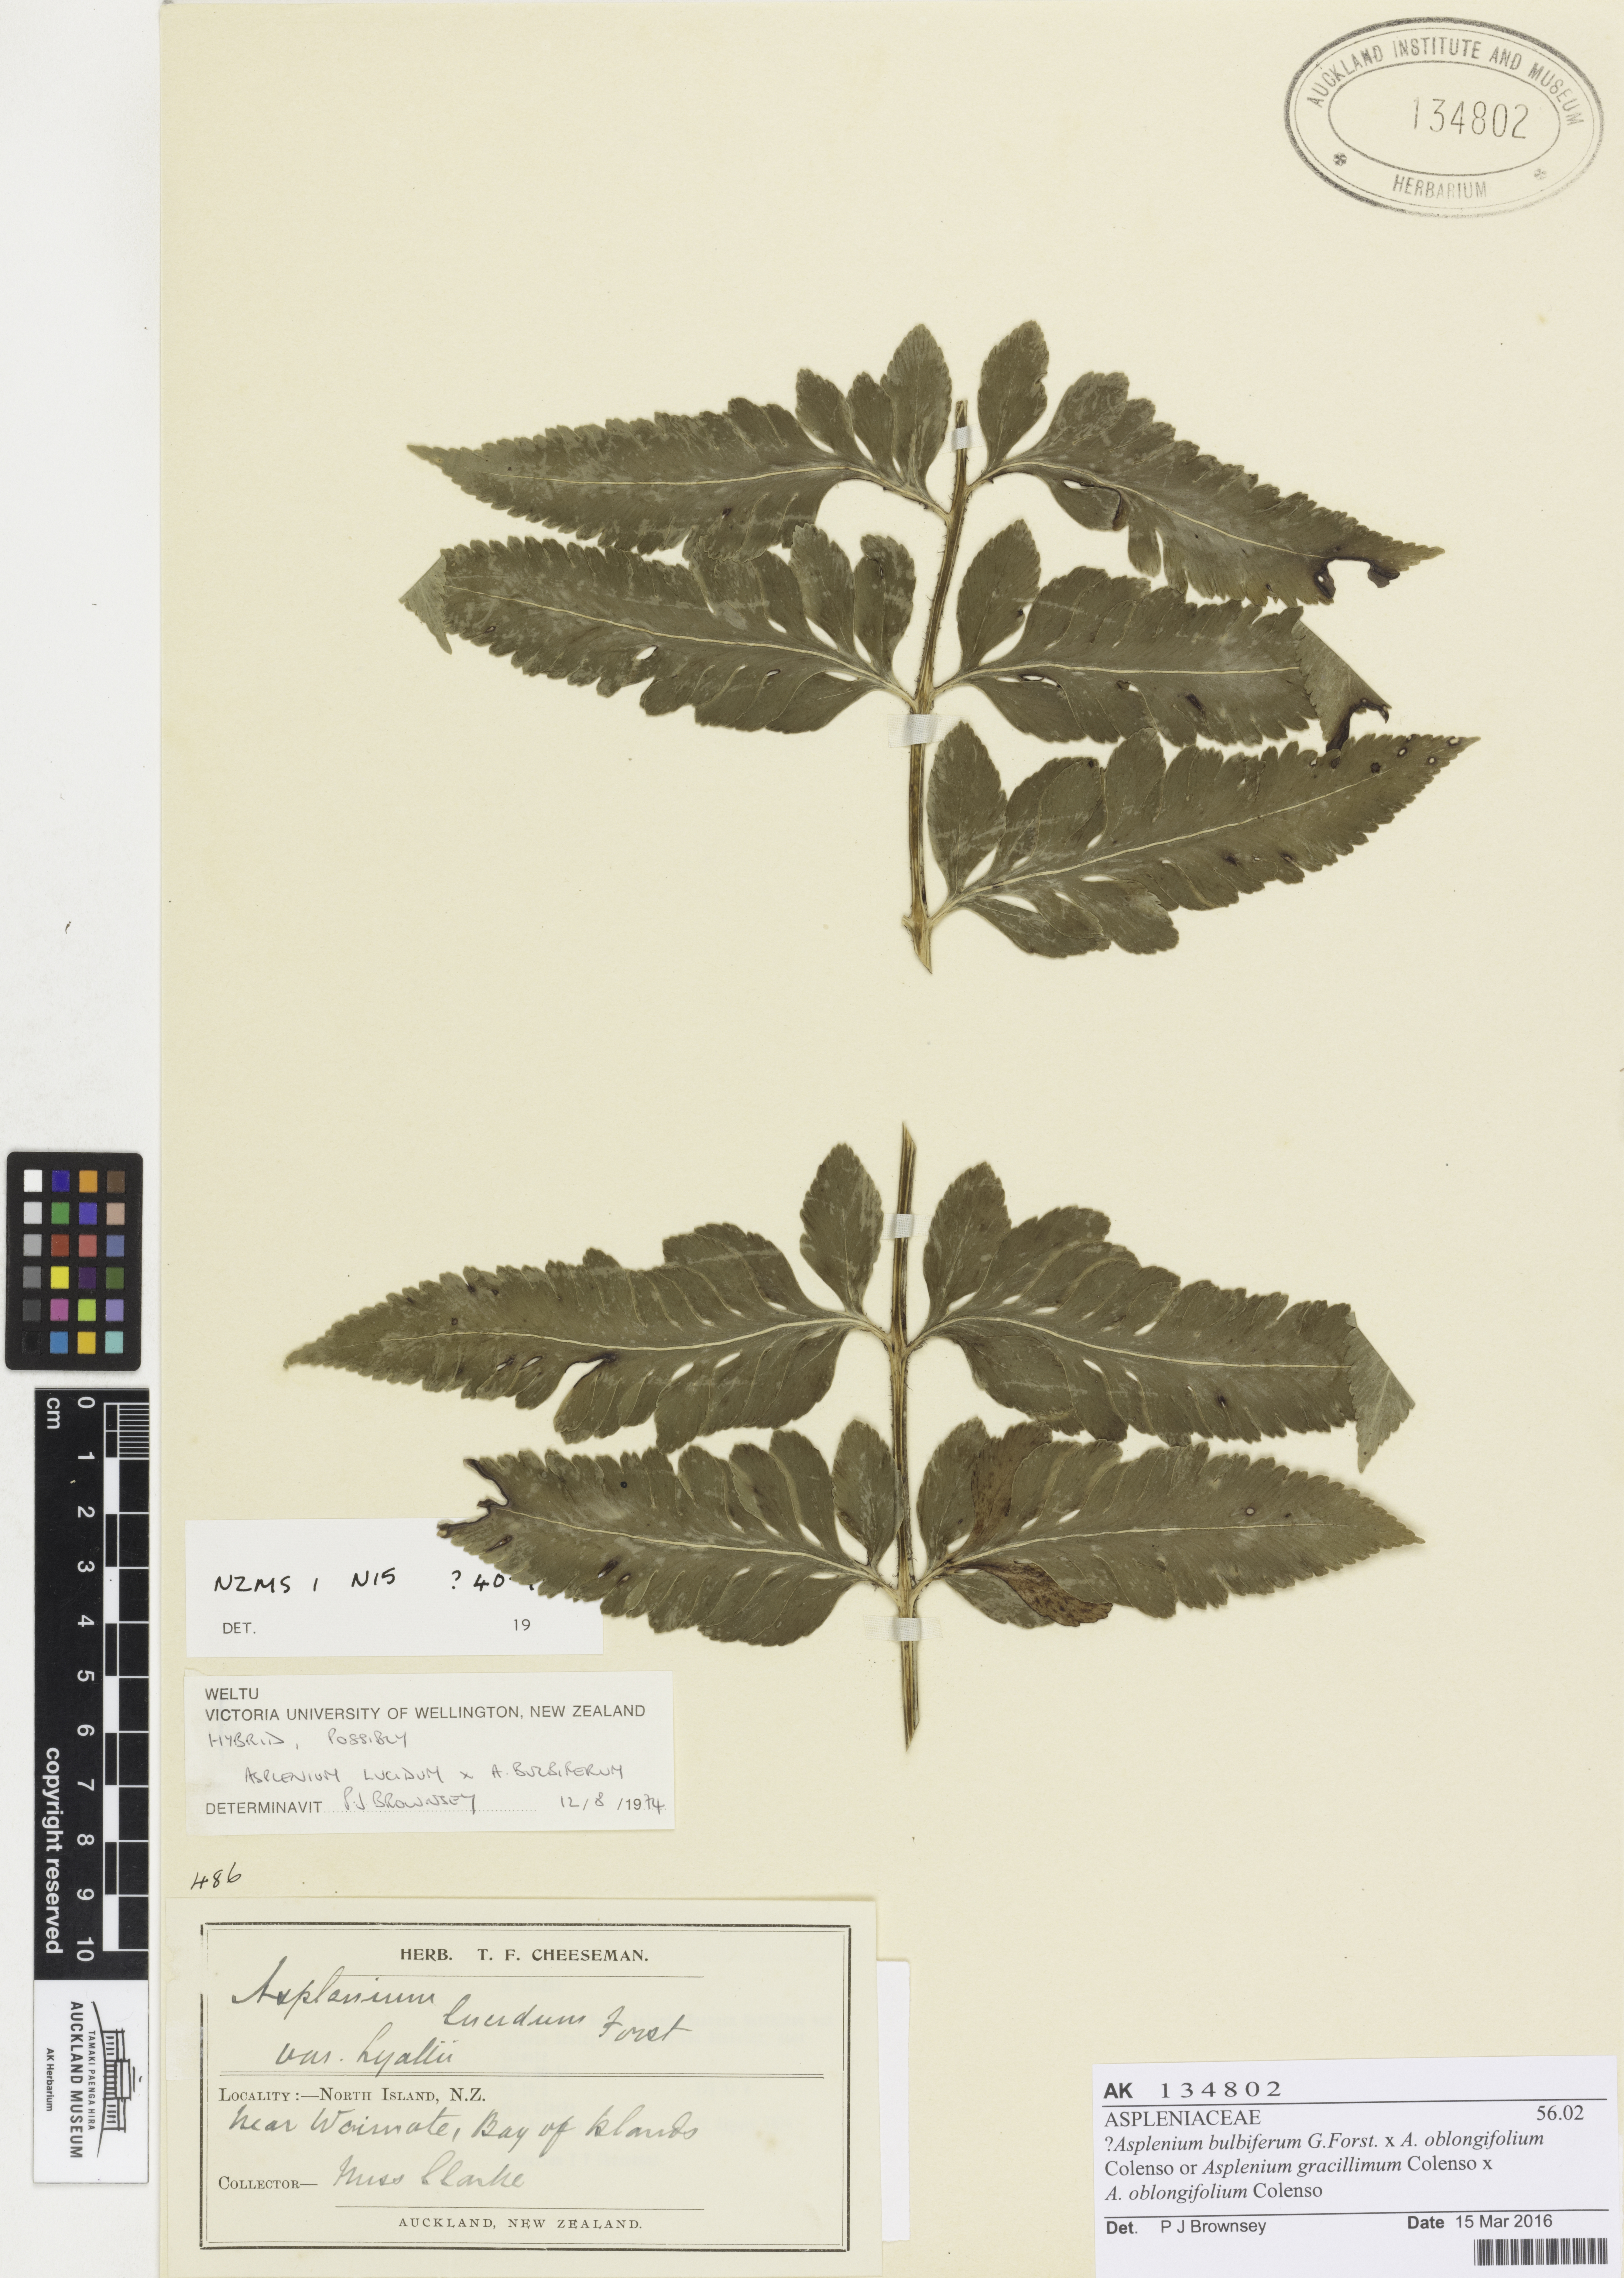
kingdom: Plantae
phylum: Tracheophyta
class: Polypodiopsida
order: Polypodiales
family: Aspleniaceae
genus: Asplenium
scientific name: Asplenium
